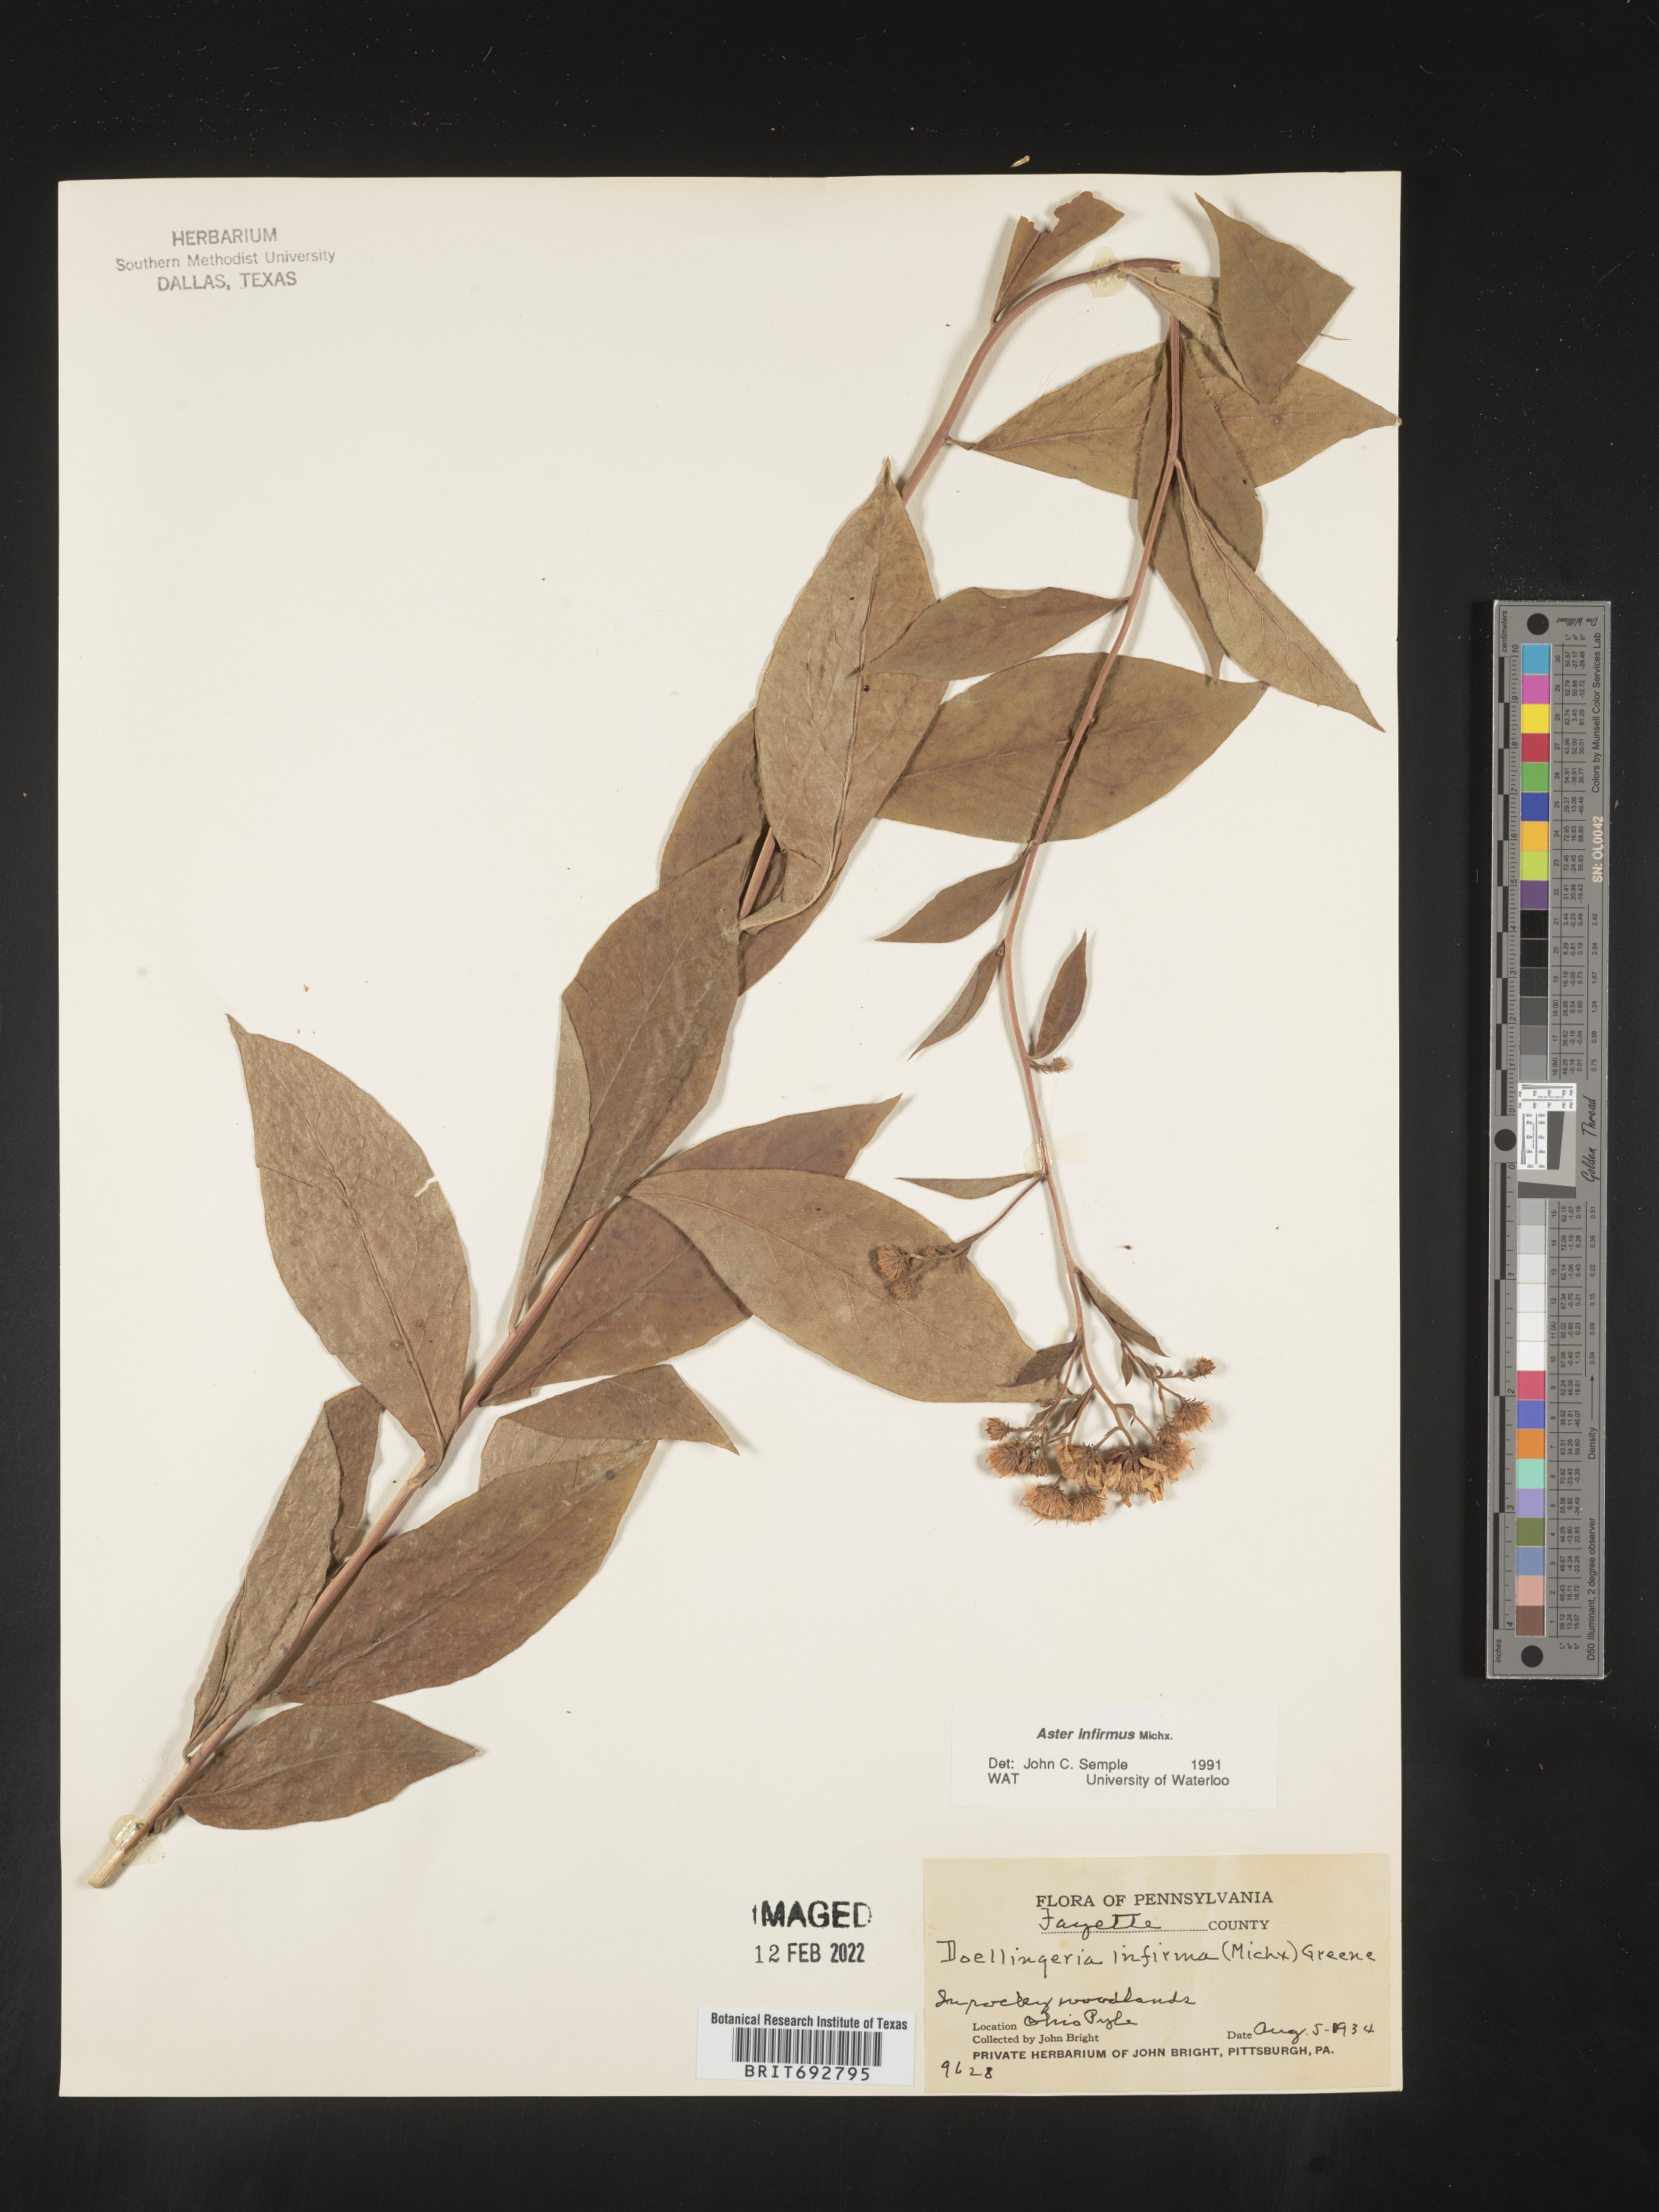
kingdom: Plantae
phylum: Tracheophyta
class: Magnoliopsida
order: Asterales
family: Asteraceae
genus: Doellingeria
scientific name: Doellingeria infirma
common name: Appalachian flat-top aster
